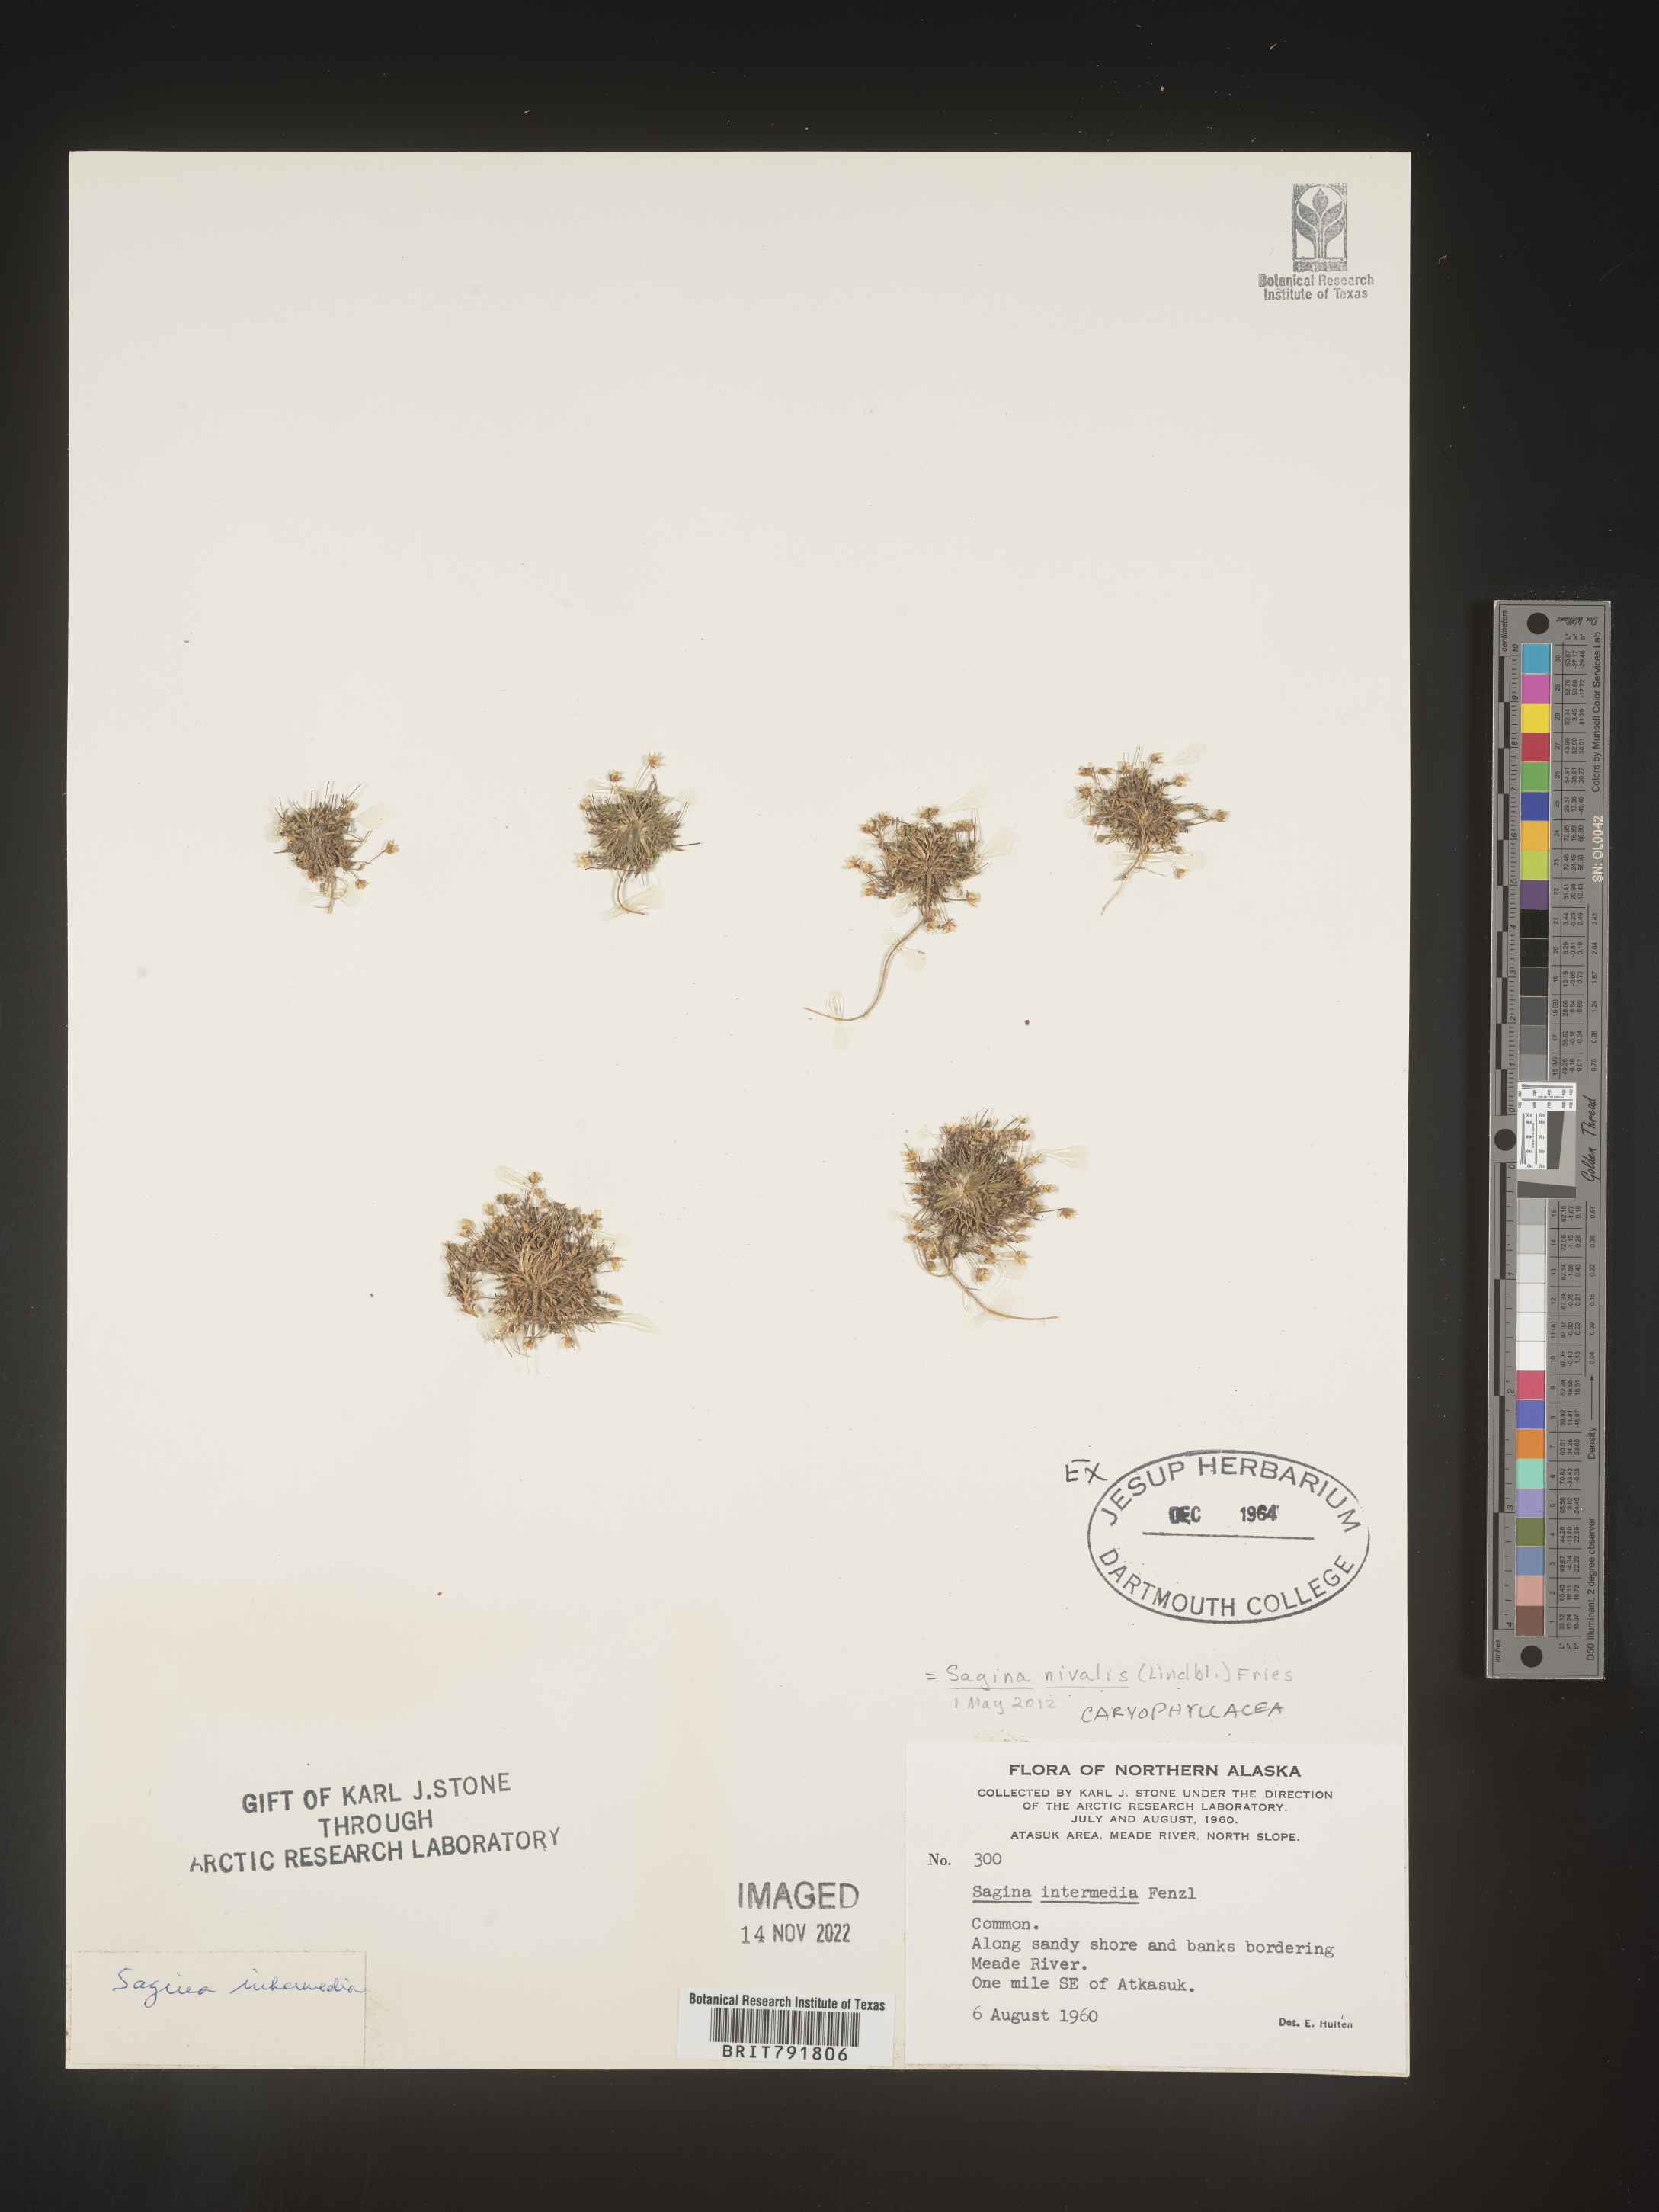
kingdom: Plantae
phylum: Tracheophyta
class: Magnoliopsida
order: Caryophyllales
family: Caryophyllaceae
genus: Sagina
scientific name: Sagina
